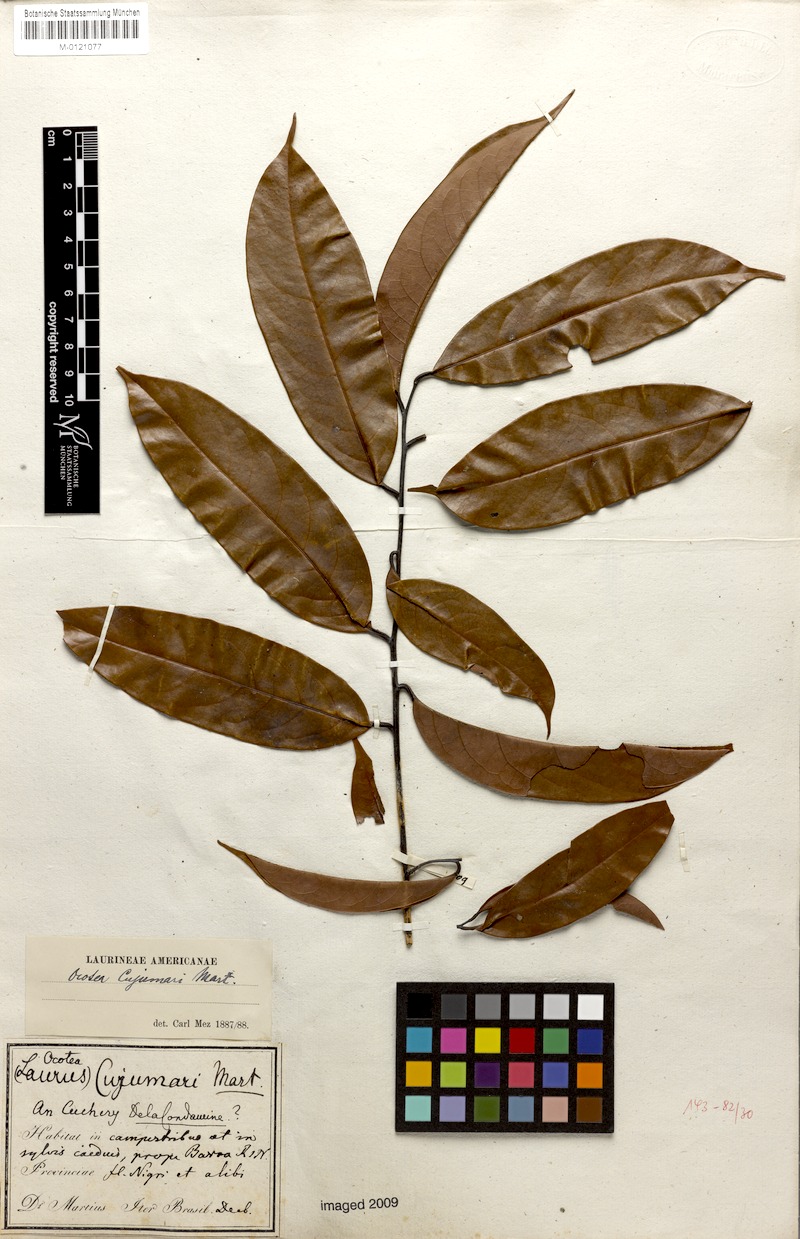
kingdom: Plantae
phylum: Tracheophyta
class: Magnoliopsida
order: Laurales
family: Lauraceae
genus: Ocotea
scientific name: Ocotea cujumary
